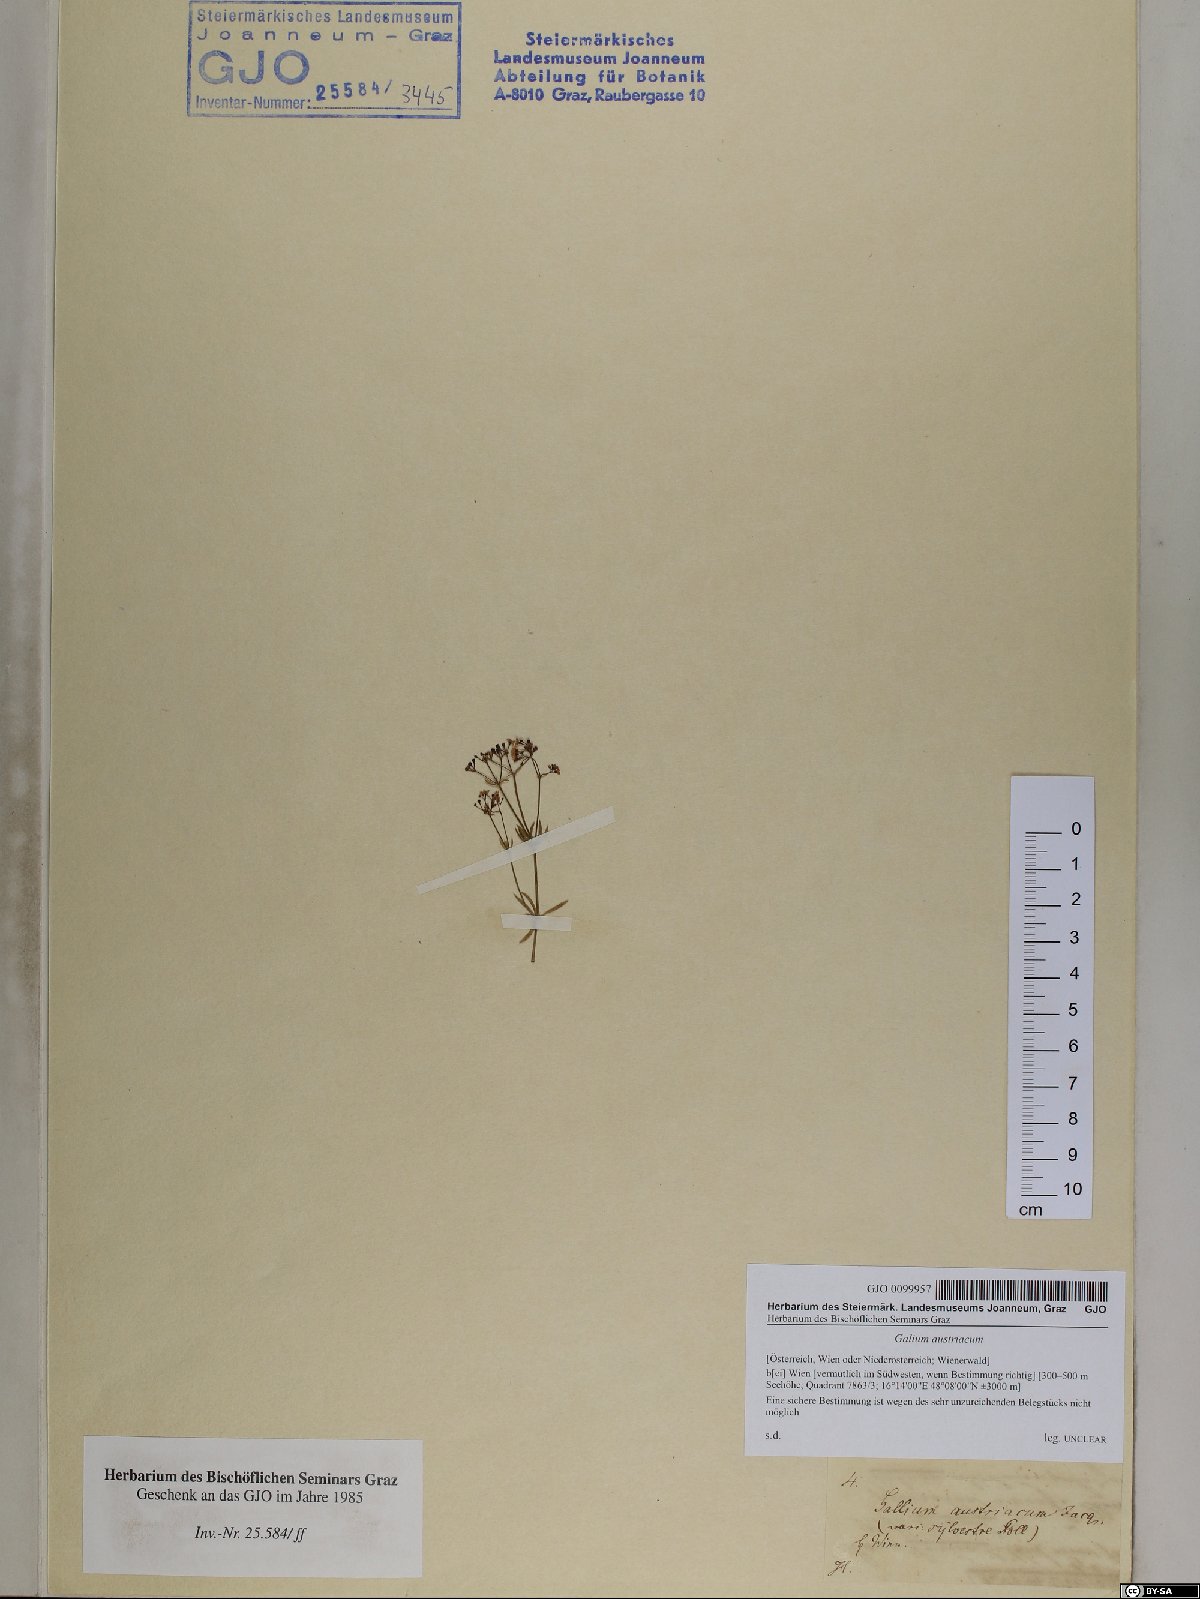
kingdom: Plantae
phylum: Tracheophyta
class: Magnoliopsida
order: Gentianales
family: Rubiaceae
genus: Galium
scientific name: Galium austriacum
